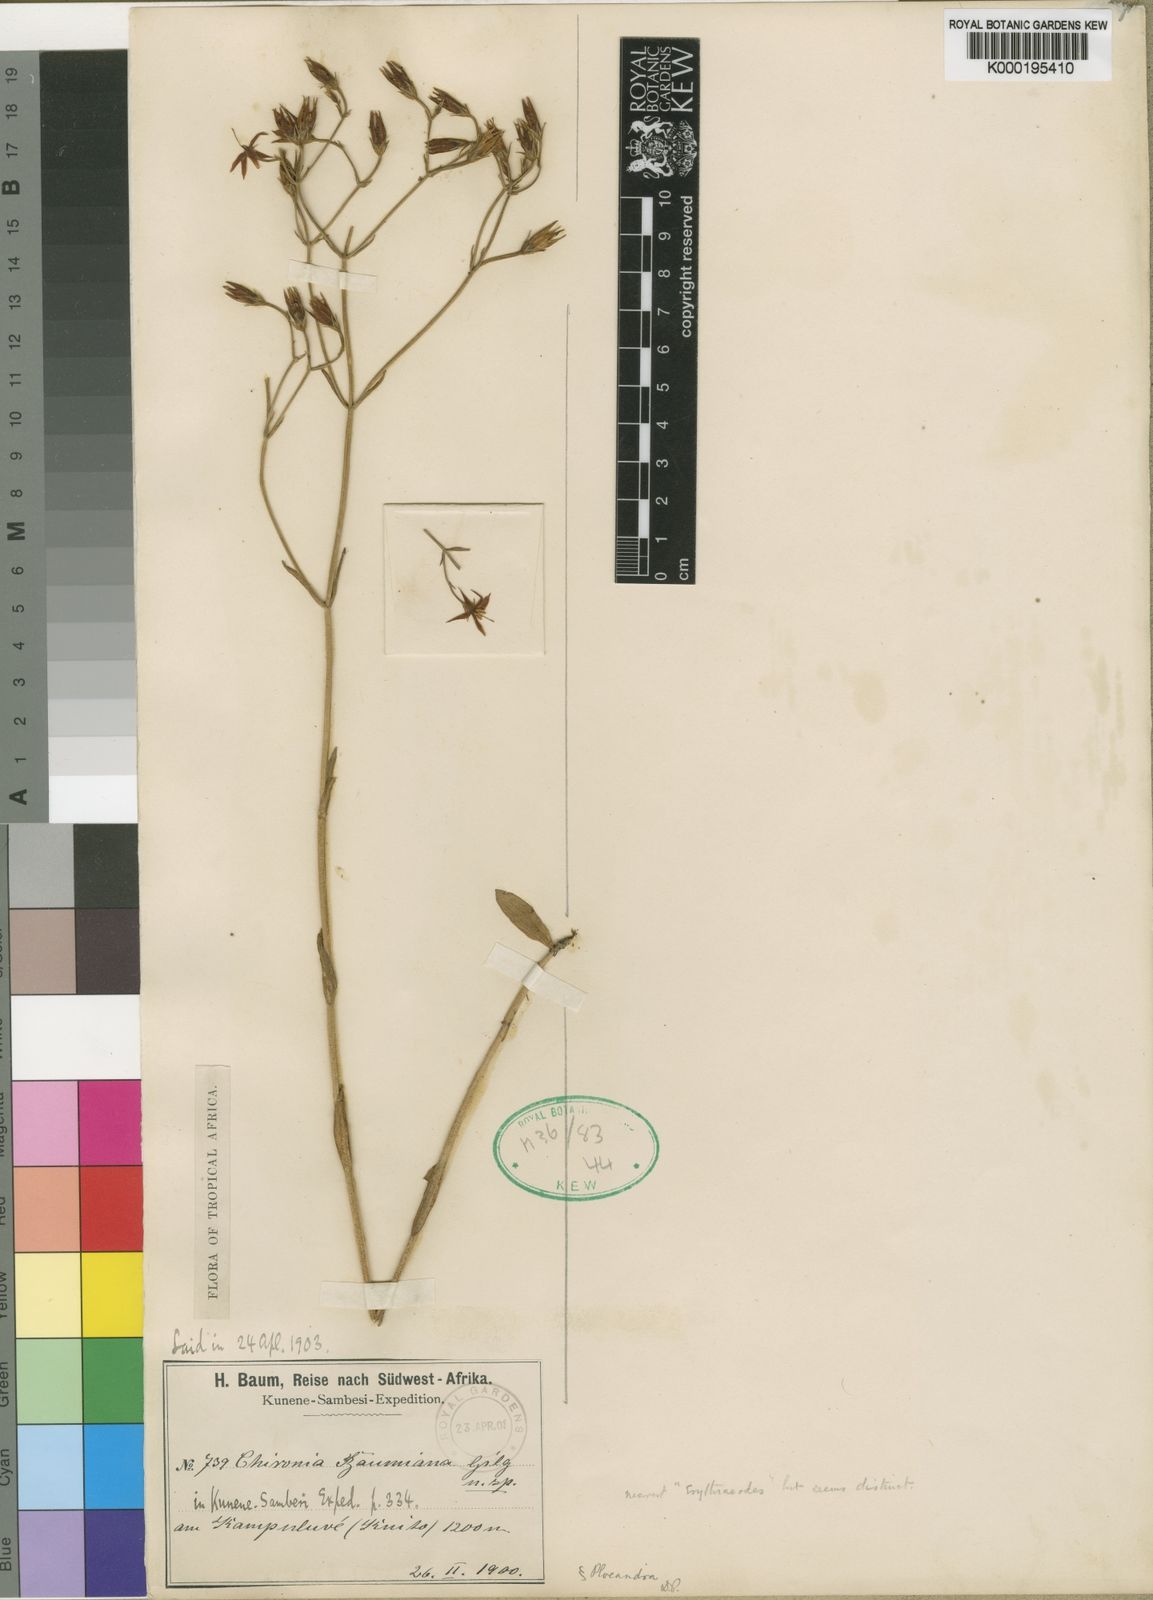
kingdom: Plantae
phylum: Tracheophyta
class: Magnoliopsida
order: Gentianales
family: Gentianaceae
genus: Chironia
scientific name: Chironia baumiana
